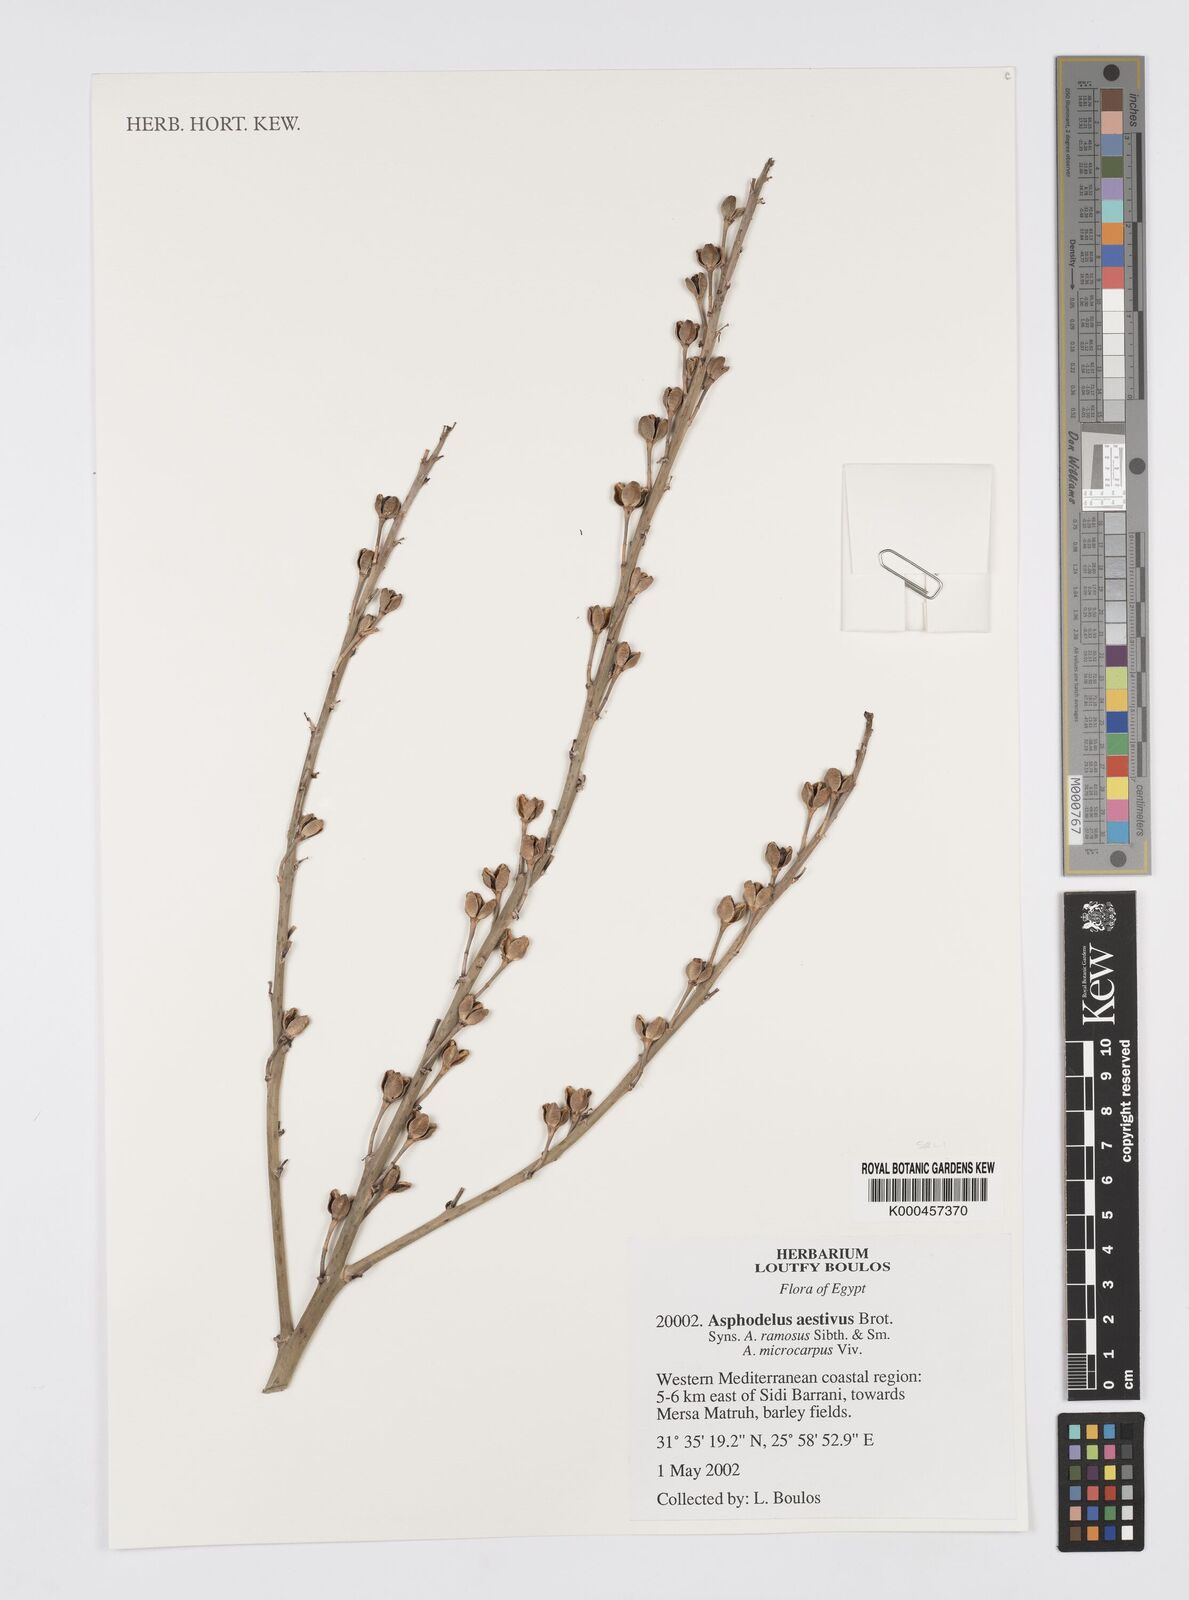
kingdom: Plantae
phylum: Tracheophyta
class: Liliopsida
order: Asparagales
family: Asphodelaceae
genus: Asphodelus
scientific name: Asphodelus aestivus
